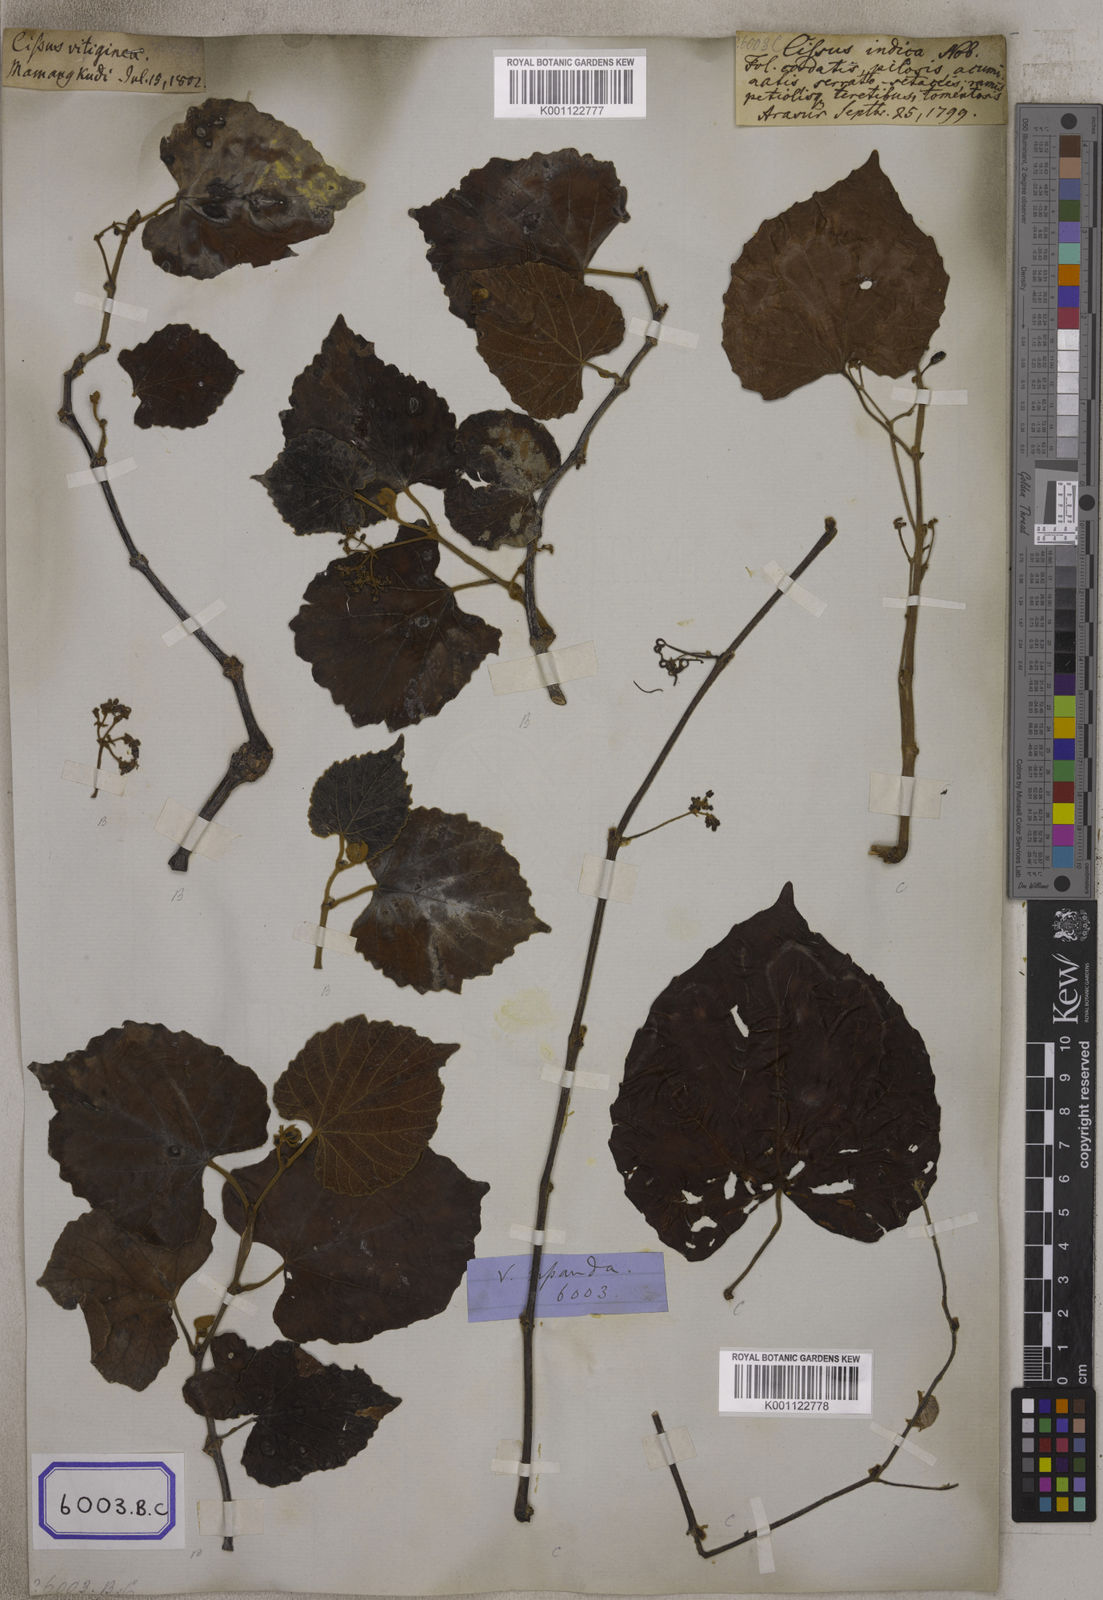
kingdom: Plantae
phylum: Tracheophyta
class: Magnoliopsida
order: Vitales
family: Vitaceae
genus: Cissus
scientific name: Cissus repanda
